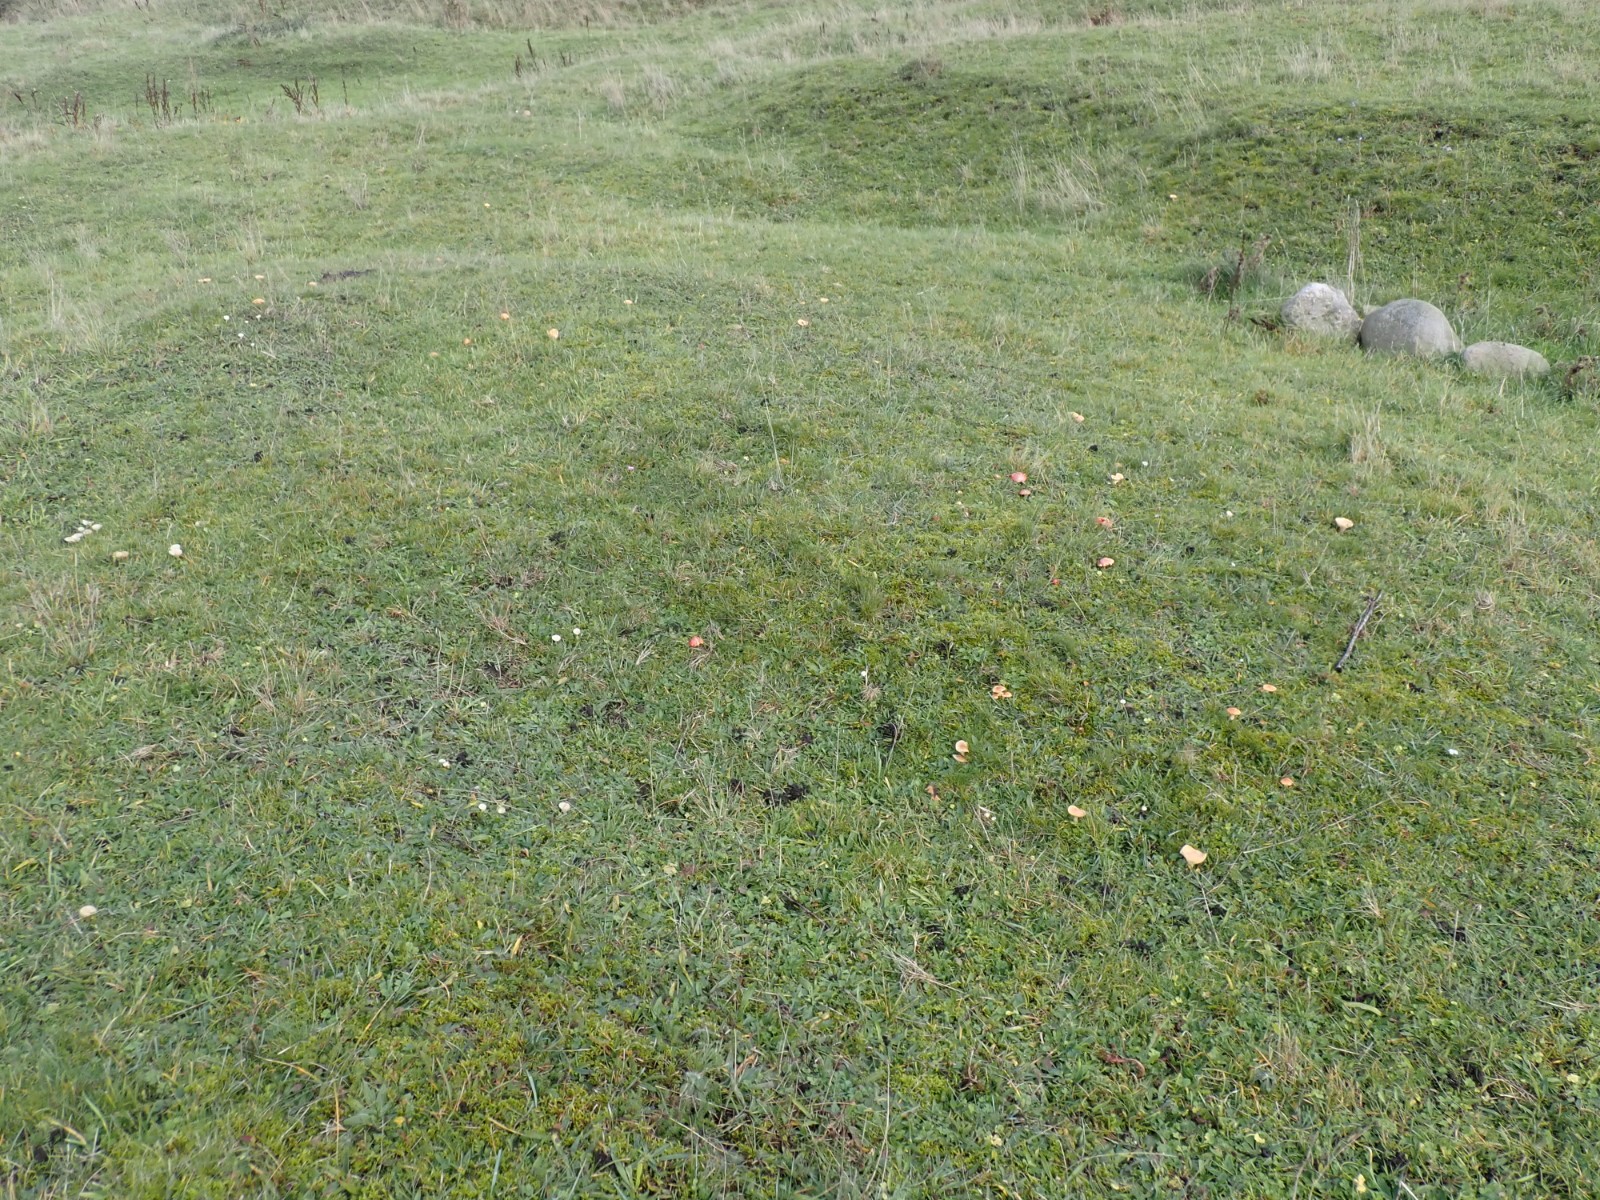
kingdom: Fungi
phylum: Basidiomycota
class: Agaricomycetes
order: Agaricales
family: Hygrophoraceae
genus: Cuphophyllus
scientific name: Cuphophyllus pratensis
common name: eng-vokshat
